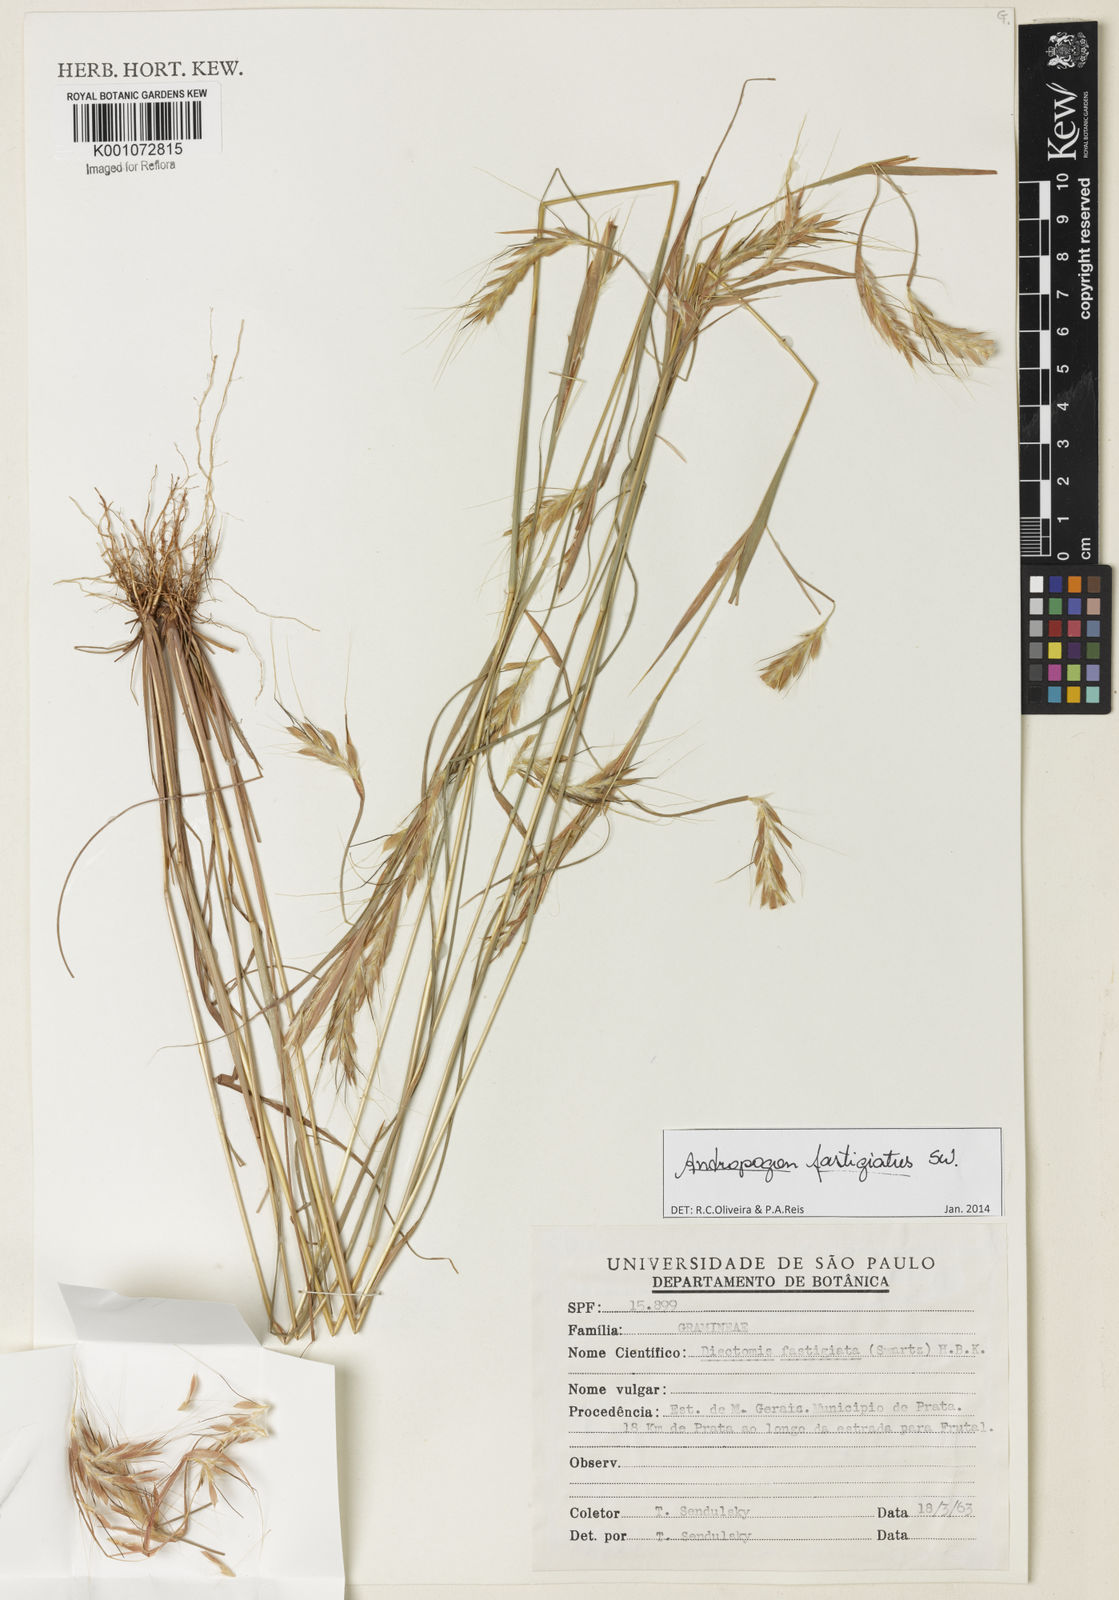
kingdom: Plantae
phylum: Tracheophyta
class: Liliopsida
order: Poales
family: Poaceae
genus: Diectomis
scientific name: Diectomis fastigiata
